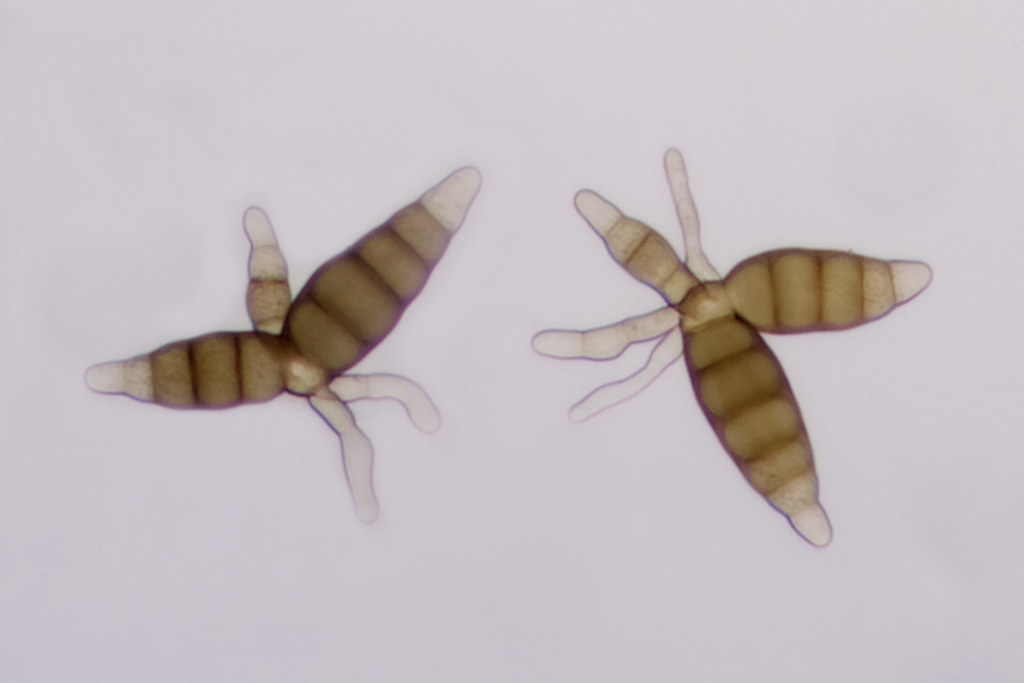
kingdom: Fungi
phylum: Ascomycota
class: Dothideomycetes
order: Pleosporales
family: Pleomassariaceae
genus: Pleomassaria
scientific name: Pleomassaria siparia
